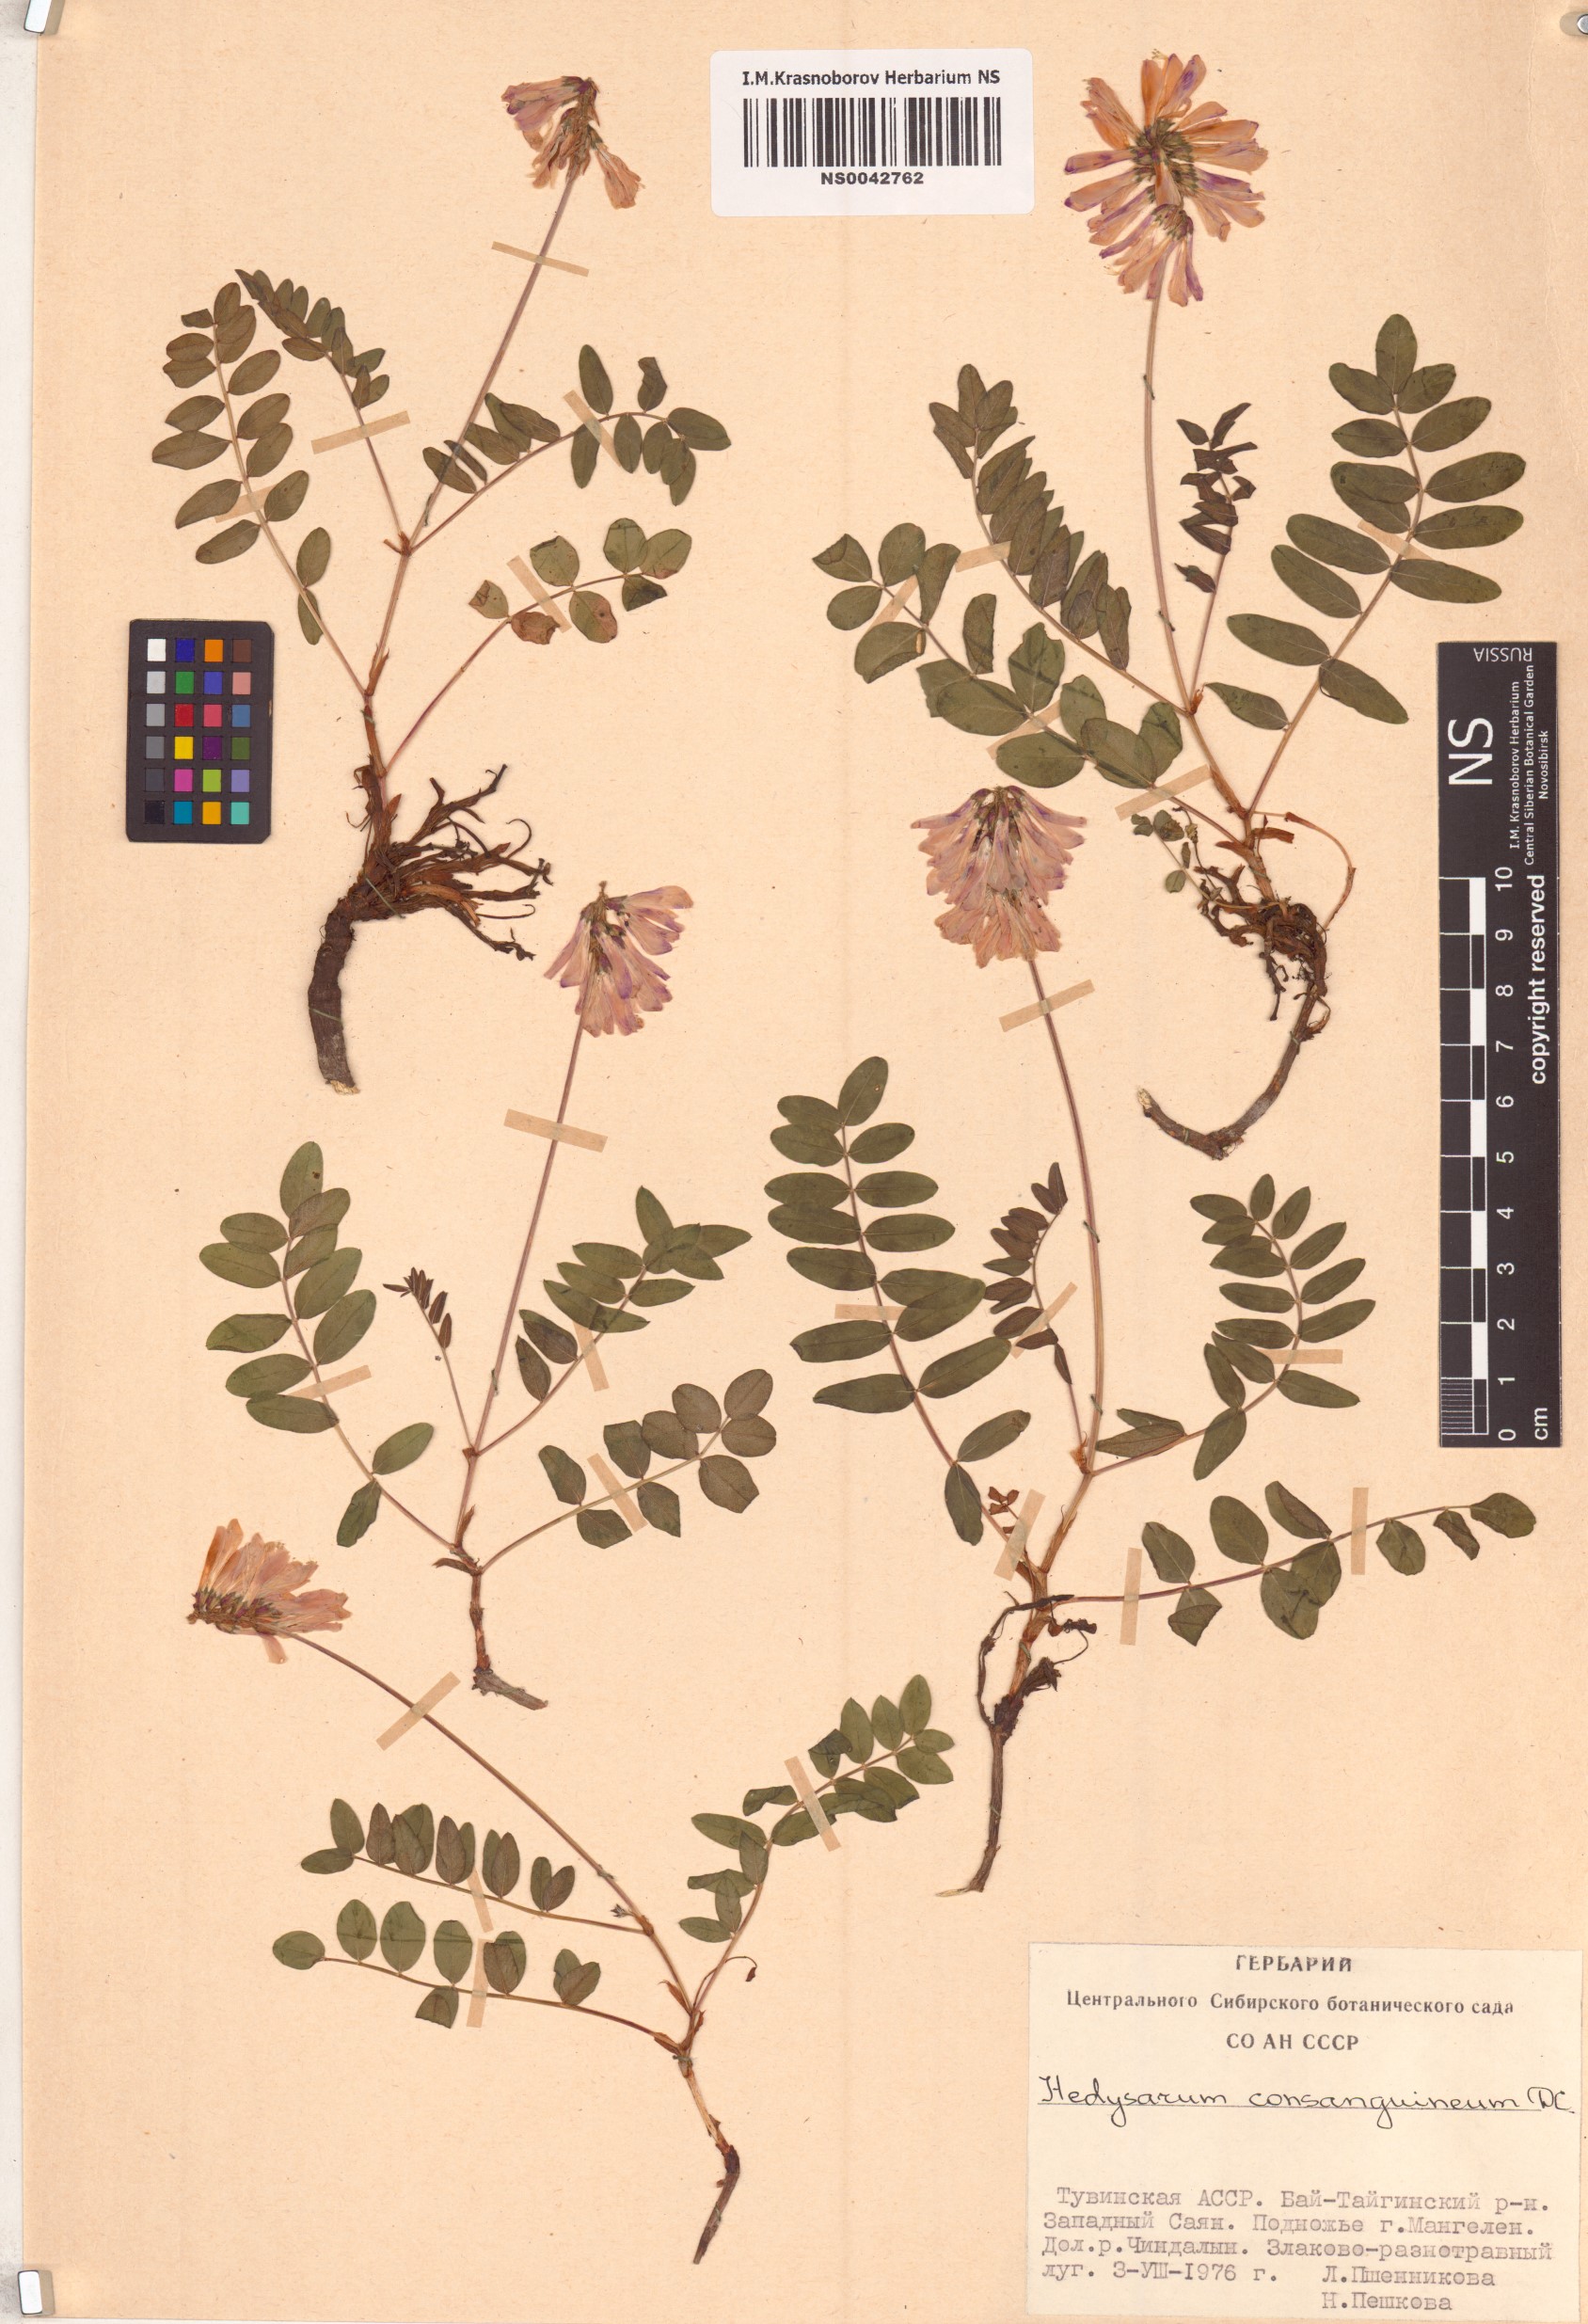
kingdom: Plantae
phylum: Tracheophyta
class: Magnoliopsida
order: Fabales
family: Fabaceae
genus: Hedysarum
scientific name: Hedysarum consanguineum
